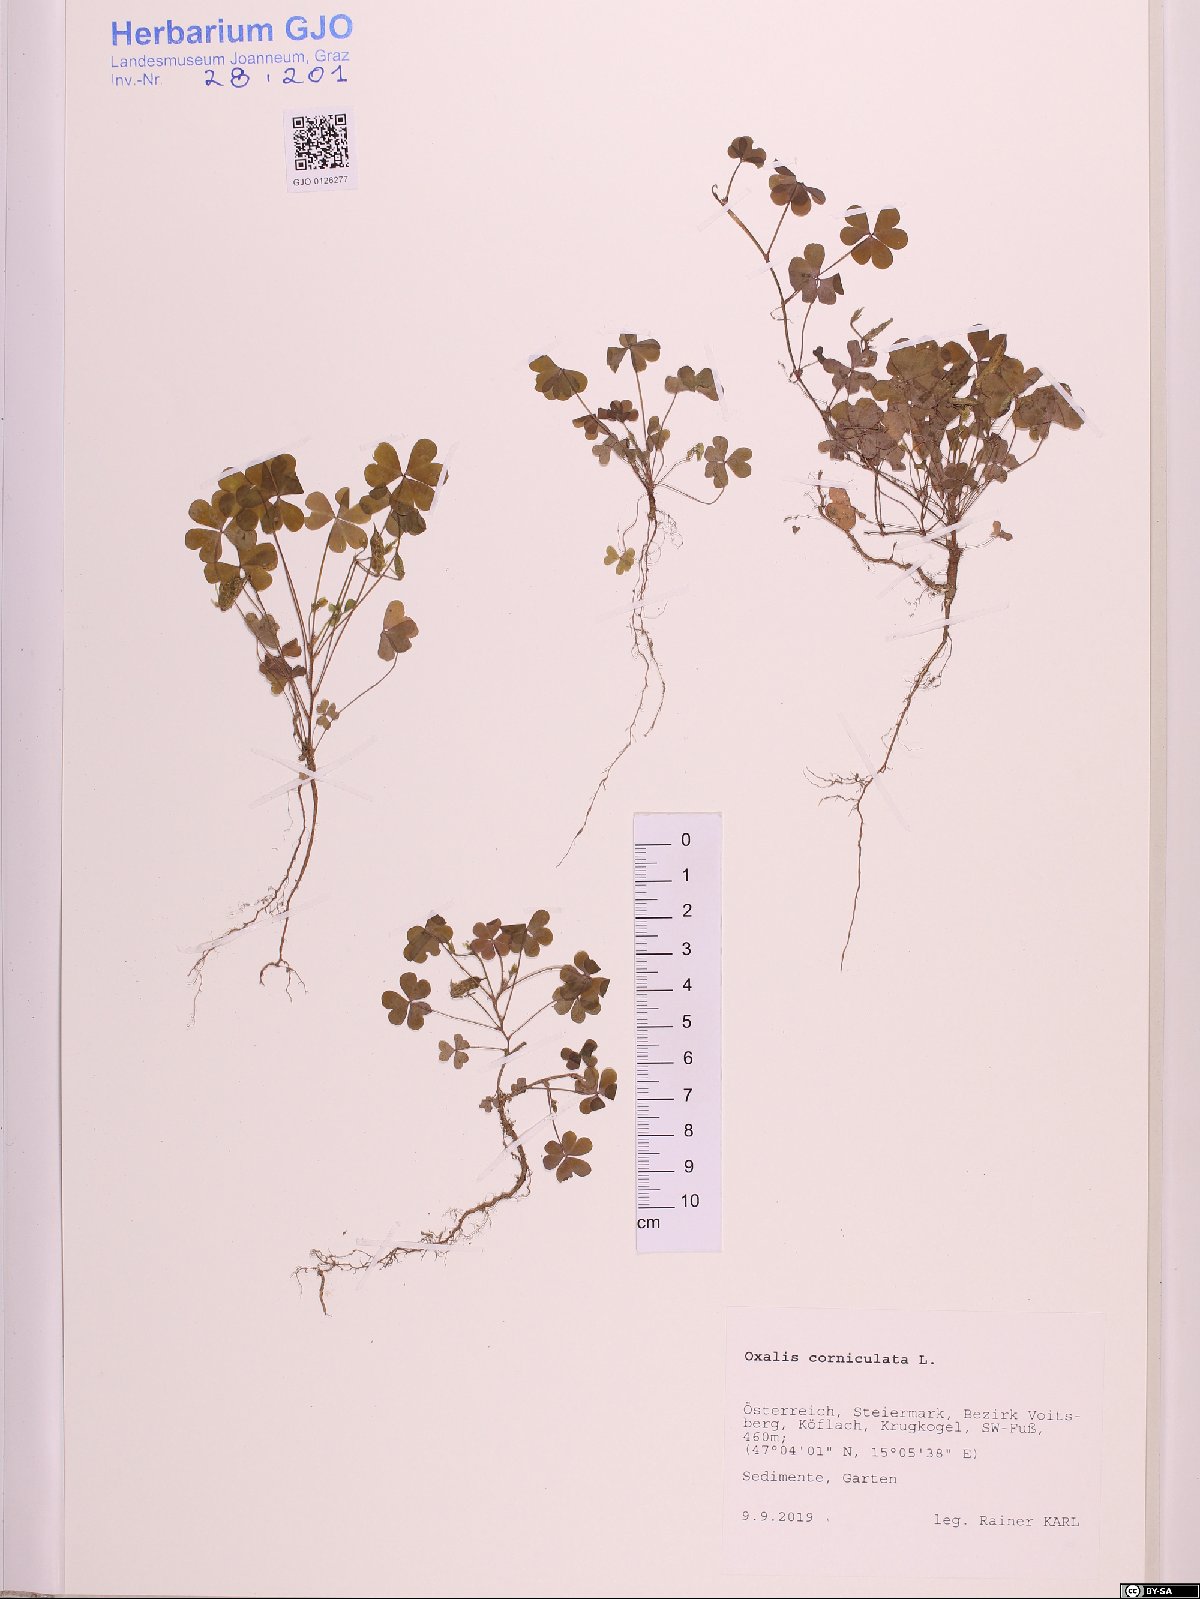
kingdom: Plantae
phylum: Tracheophyta
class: Magnoliopsida
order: Oxalidales
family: Oxalidaceae
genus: Oxalis
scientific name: Oxalis corniculata
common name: Procumbent yellow-sorrel
